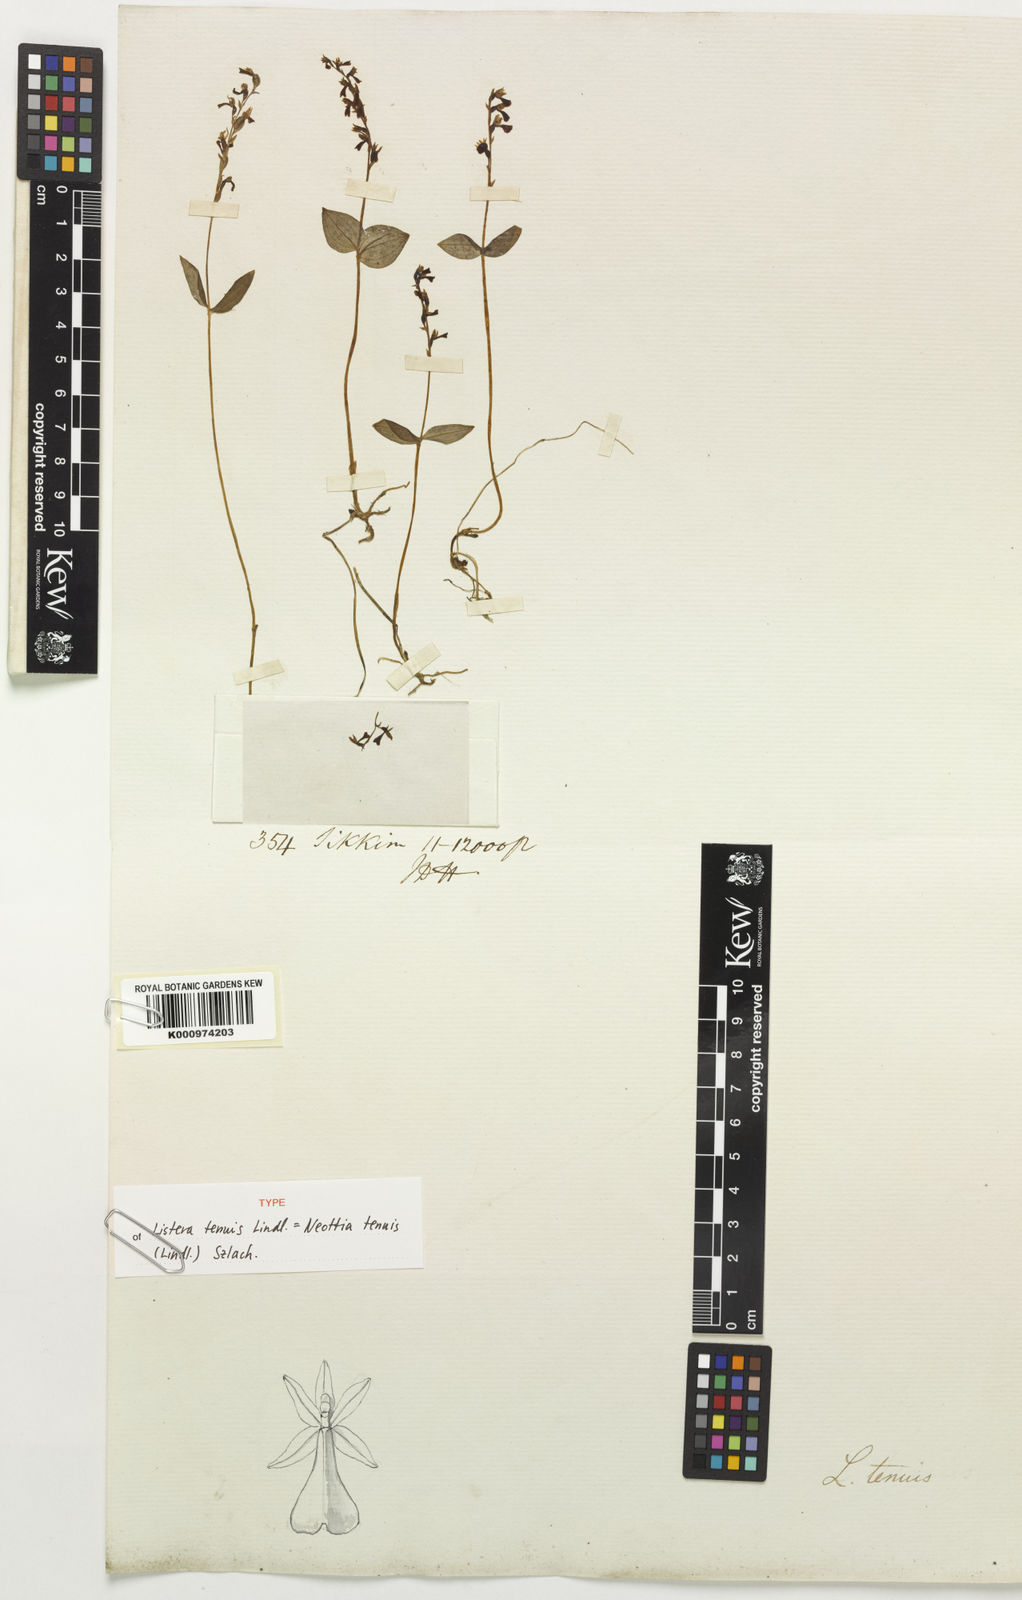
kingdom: Plantae
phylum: Tracheophyta
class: Liliopsida
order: Asparagales
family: Orchidaceae
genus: Neottia
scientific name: Neottia tenuis
